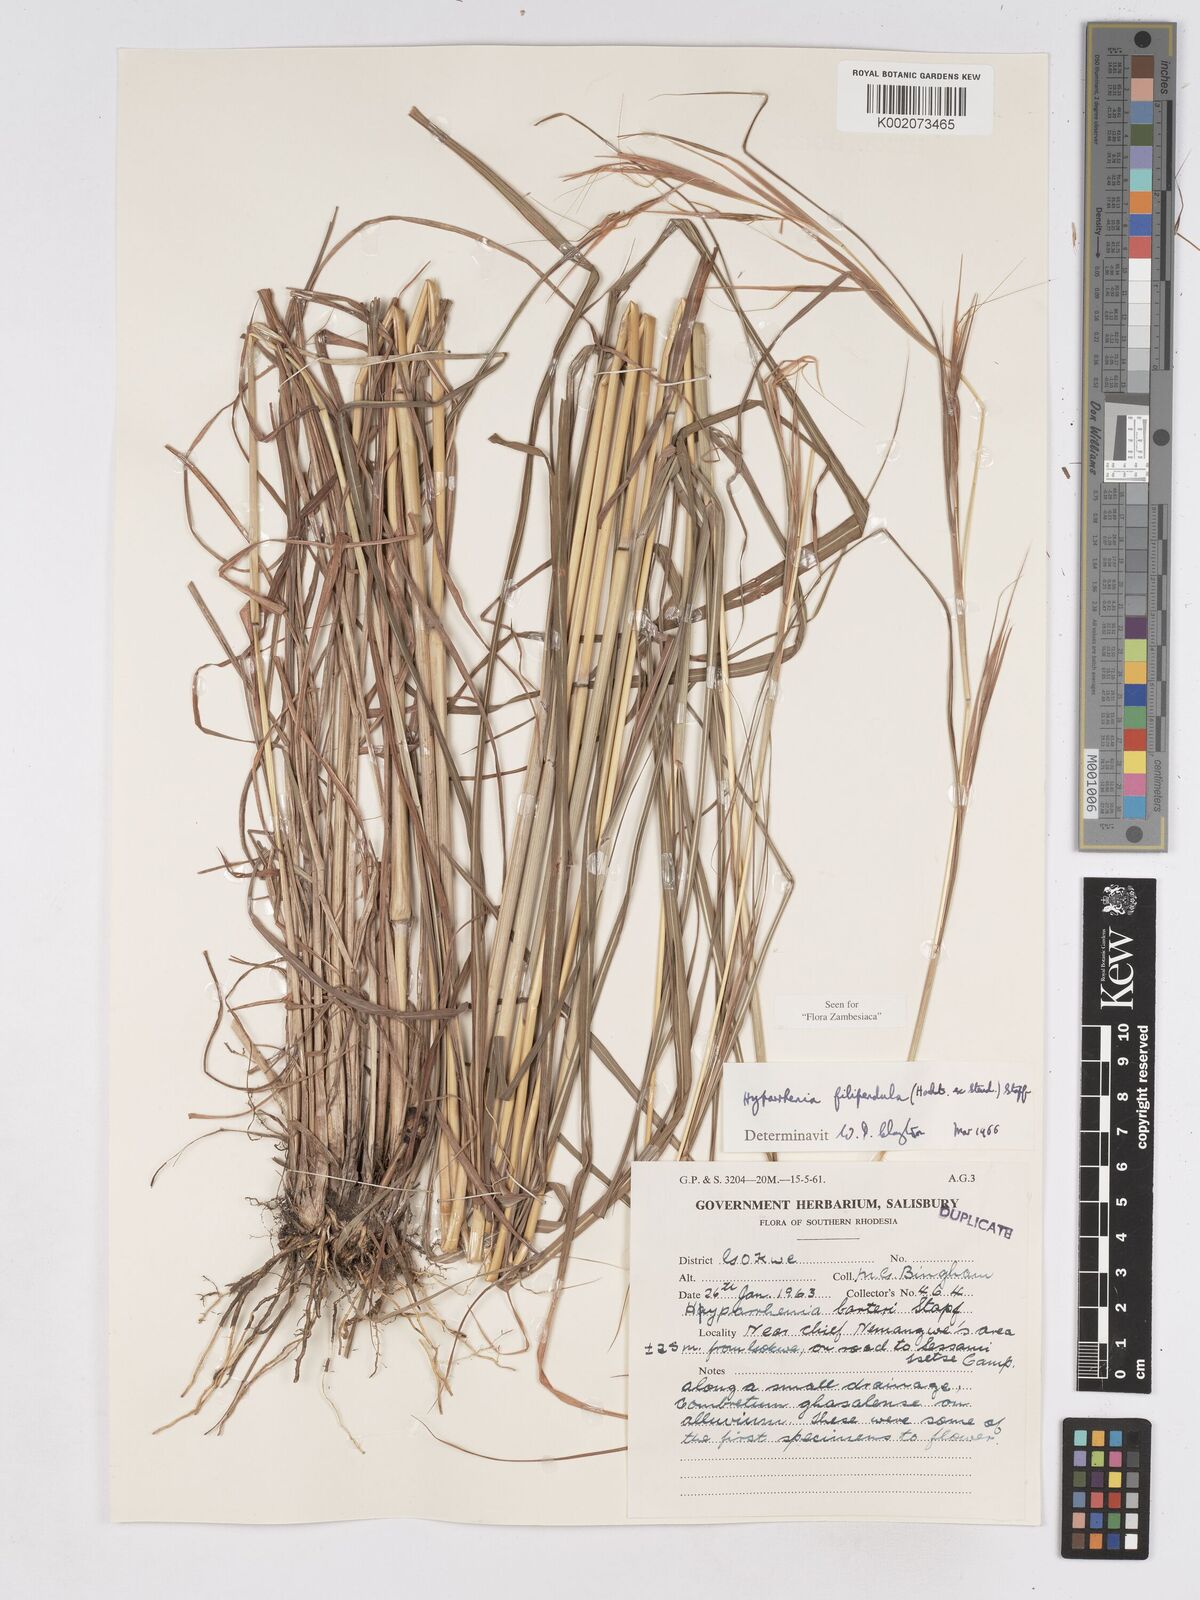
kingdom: Plantae
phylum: Tracheophyta
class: Liliopsida
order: Poales
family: Poaceae
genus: Hyparrhenia
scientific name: Hyparrhenia filipendula
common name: Tambookie grass
